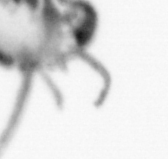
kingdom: Animalia
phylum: Annelida
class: Polychaeta
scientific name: Polychaeta
